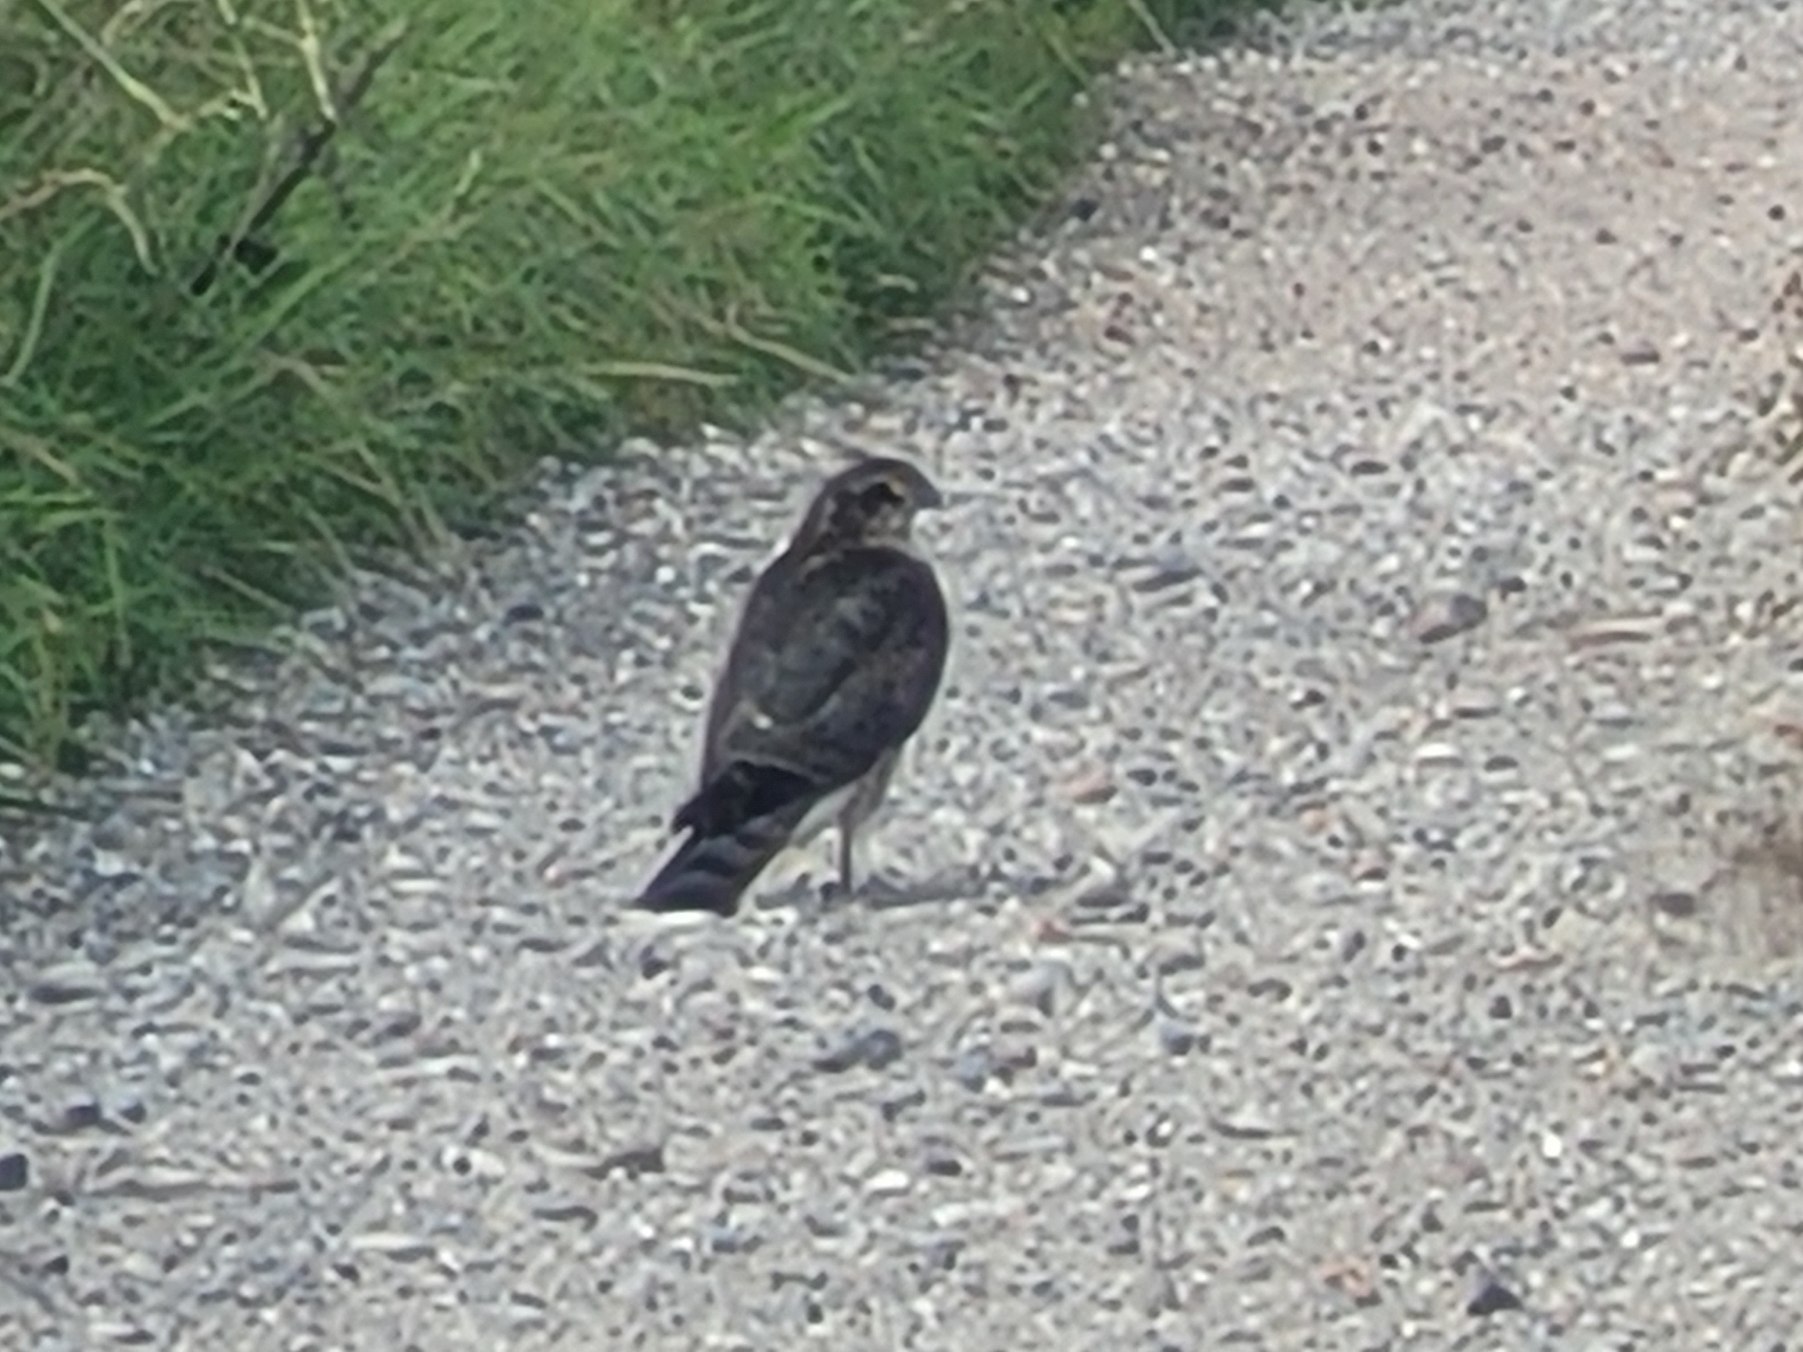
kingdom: Animalia
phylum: Chordata
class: Aves
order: Accipitriformes
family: Accipitridae
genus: Accipiter
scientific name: Accipiter nisus
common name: Spurvehøg
